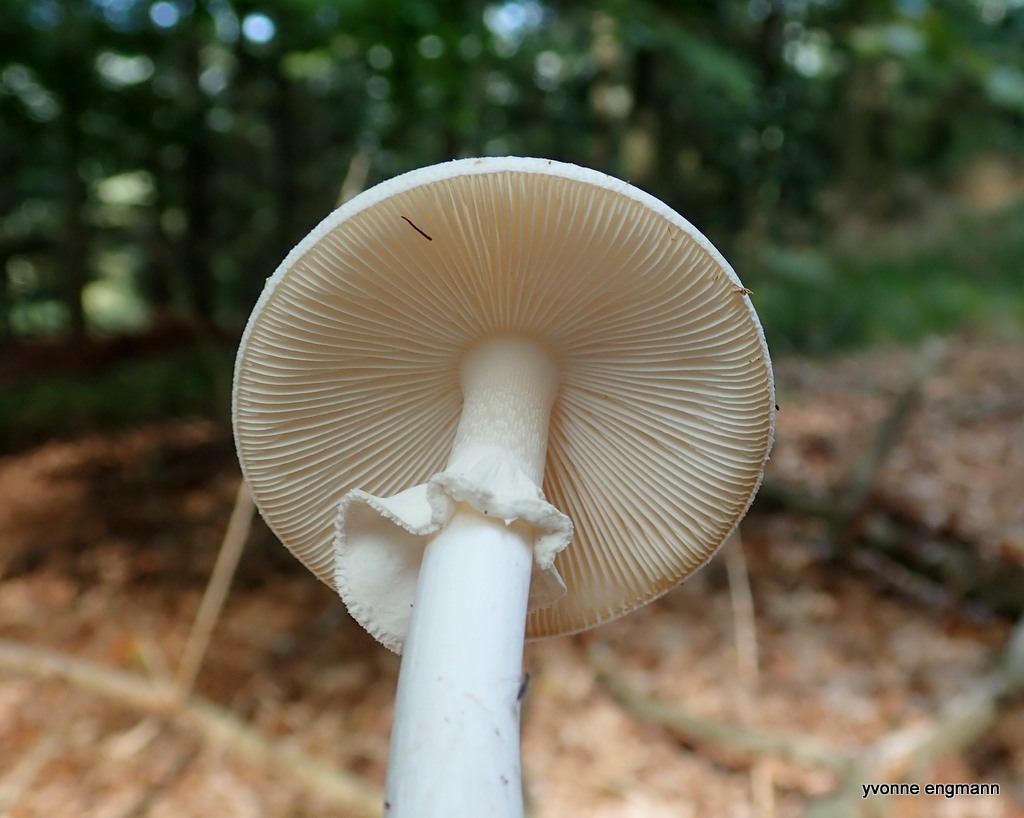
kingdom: Fungi
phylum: Basidiomycota
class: Agaricomycetes
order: Agaricales
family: Amanitaceae
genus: Amanita
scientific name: Amanita virosa
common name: snehvid fluesvamp
